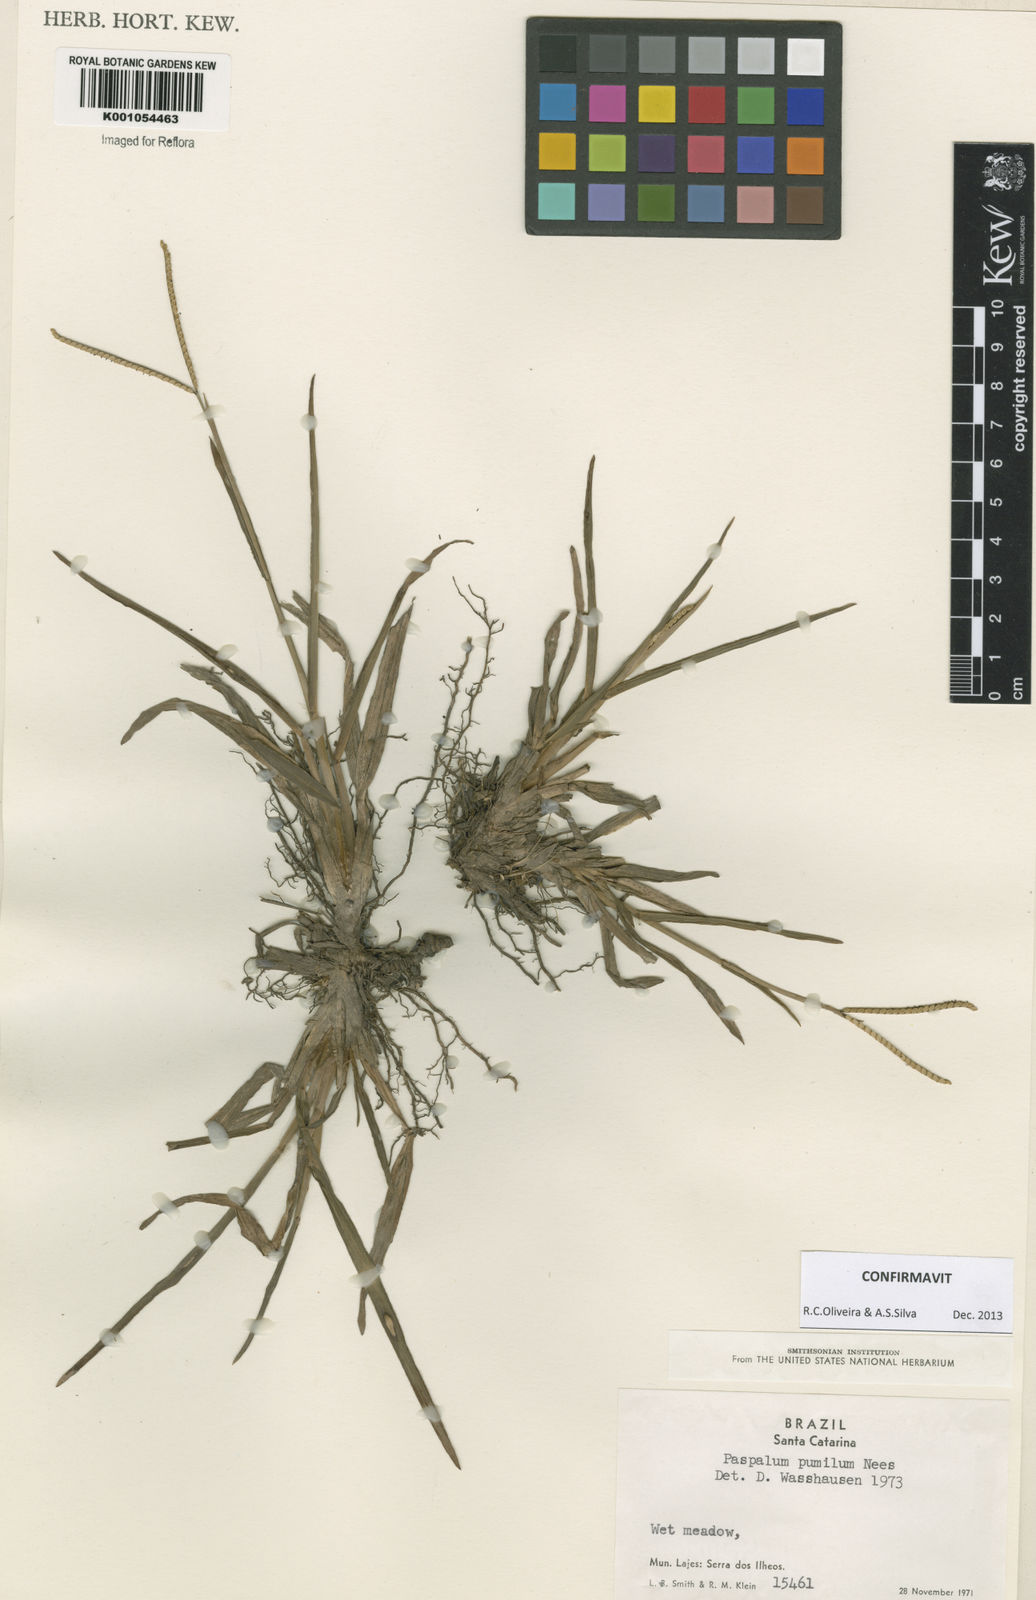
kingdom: Plantae
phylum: Tracheophyta
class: Liliopsida
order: Poales
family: Poaceae
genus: Paspalum
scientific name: Paspalum pumilum
